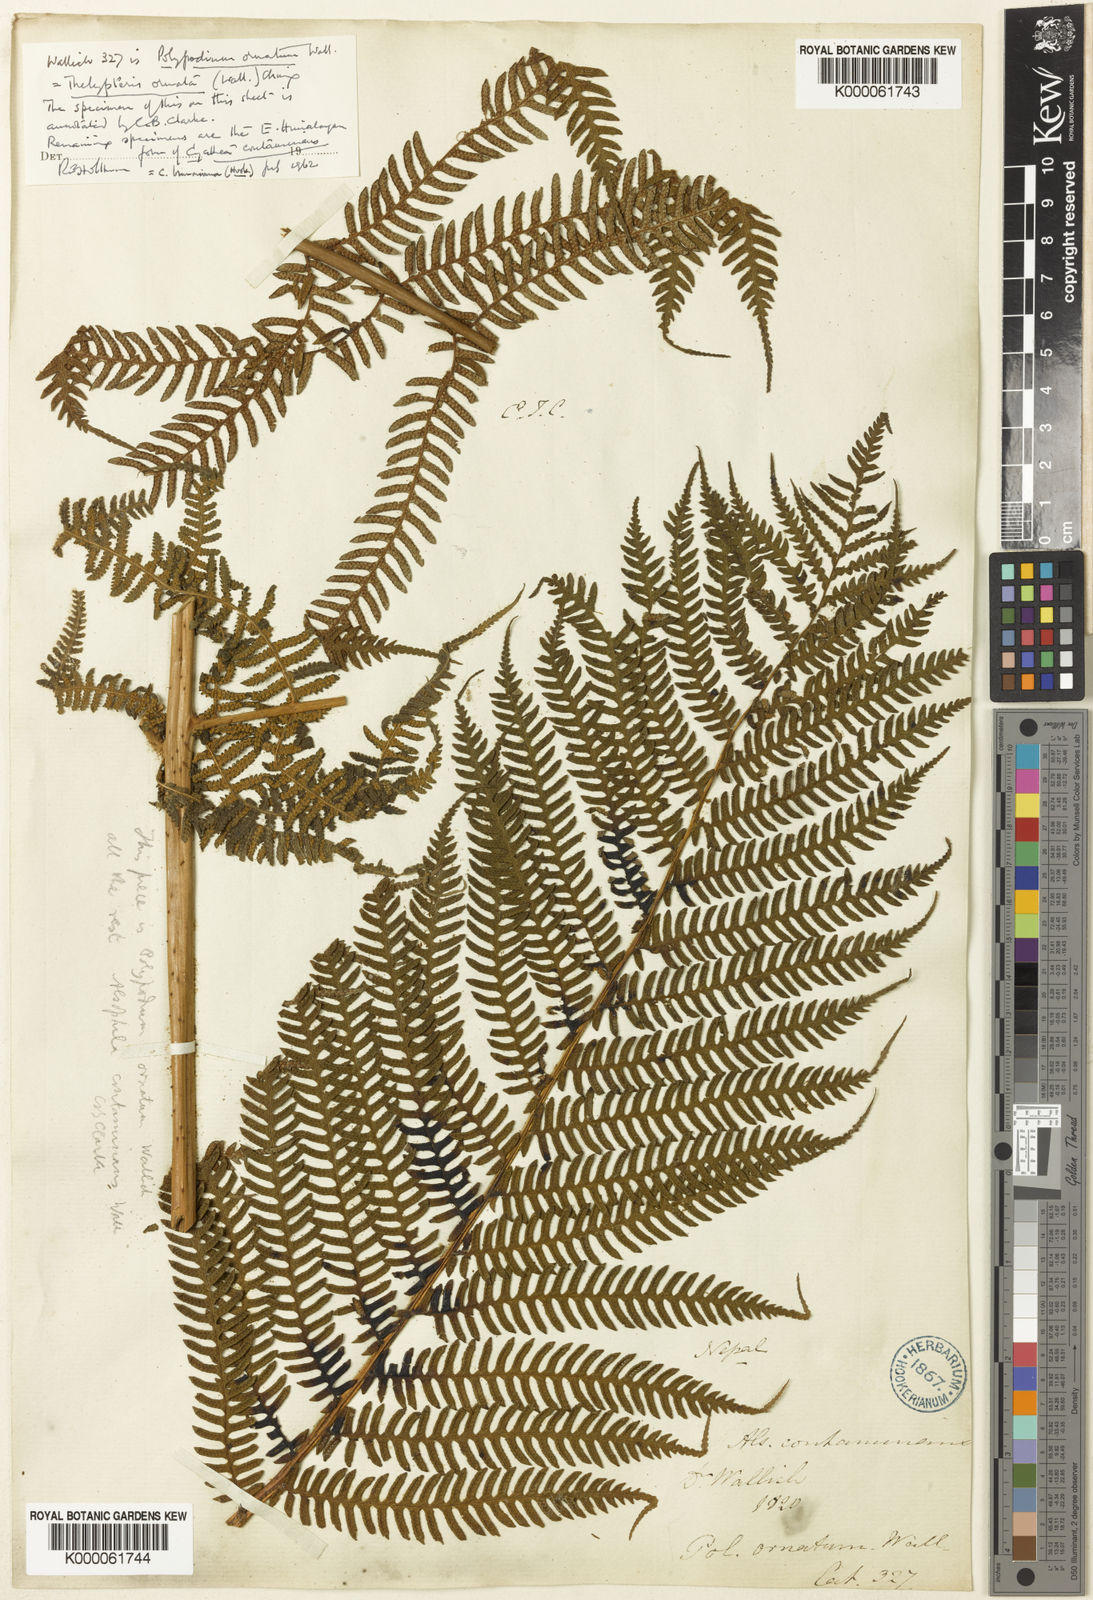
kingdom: Plantae
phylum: Tracheophyta
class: Polypodiopsida
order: Cyatheales
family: Cyatheaceae
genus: Sphaeropteris
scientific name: Sphaeropteris
